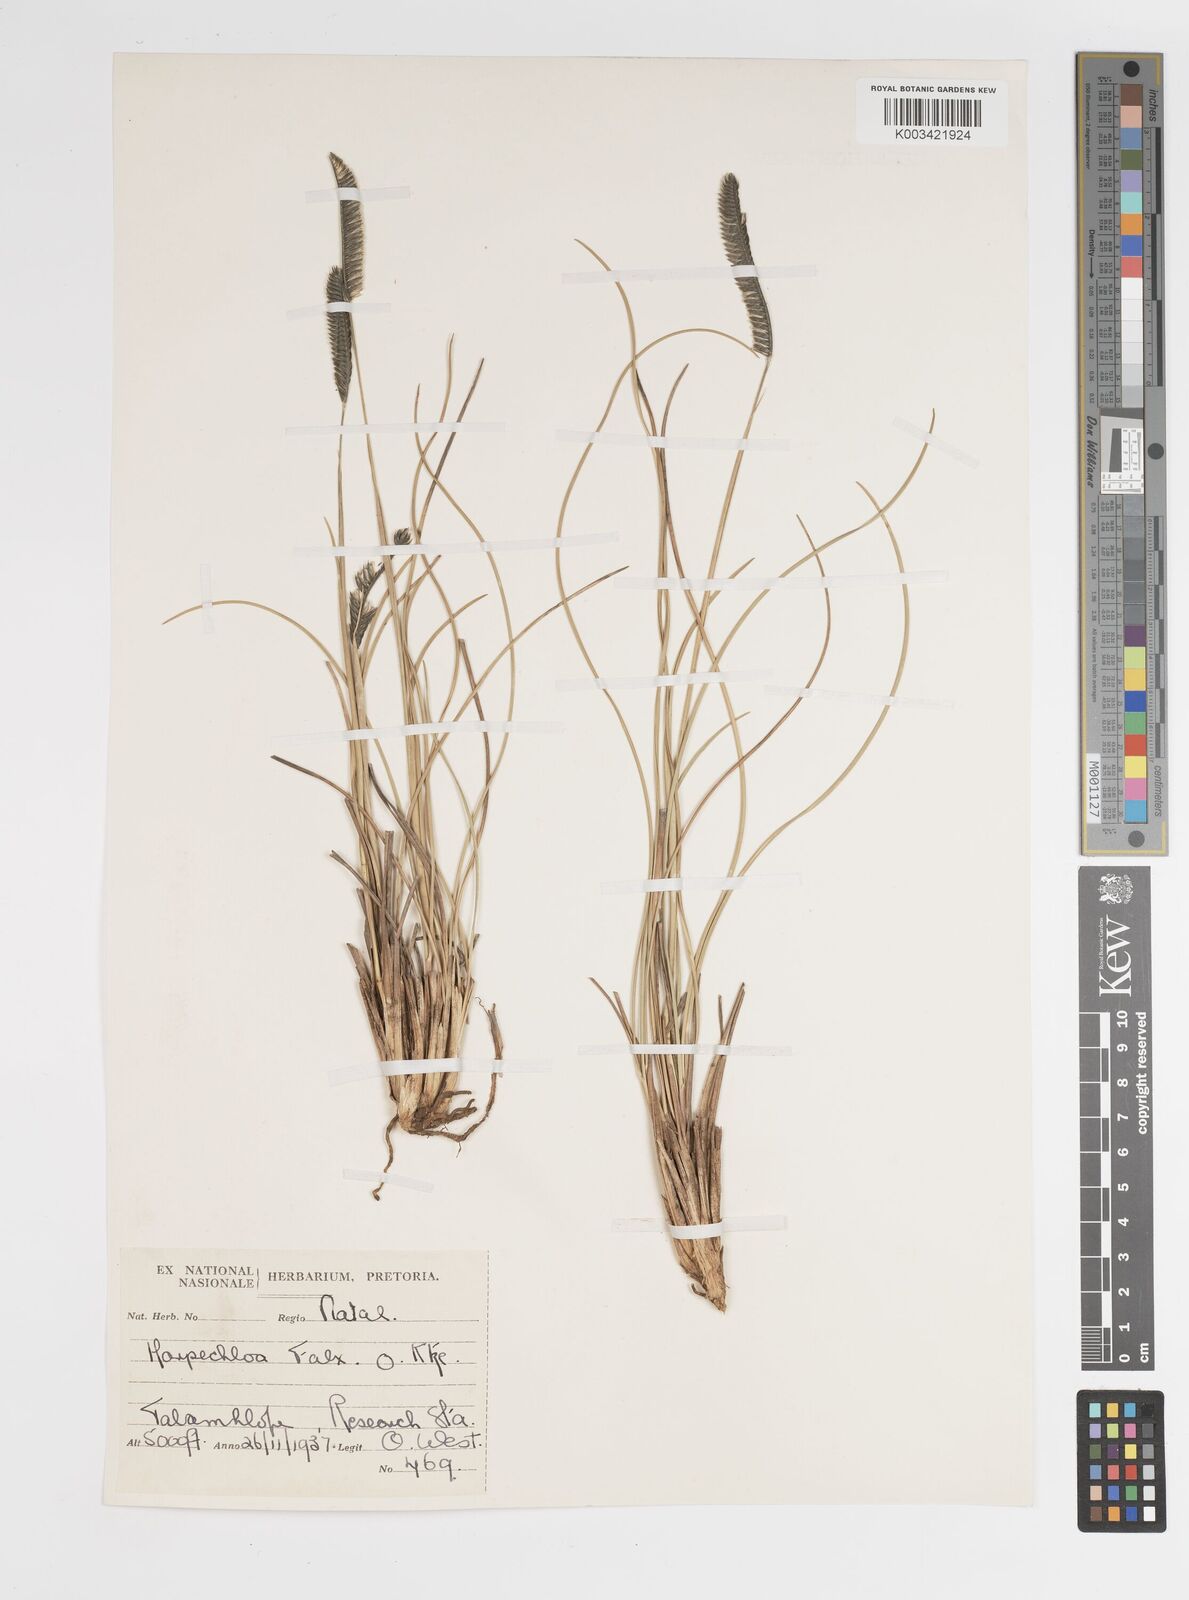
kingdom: Plantae
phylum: Tracheophyta
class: Liliopsida
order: Poales
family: Poaceae
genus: Harpochloa
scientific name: Harpochloa falx
